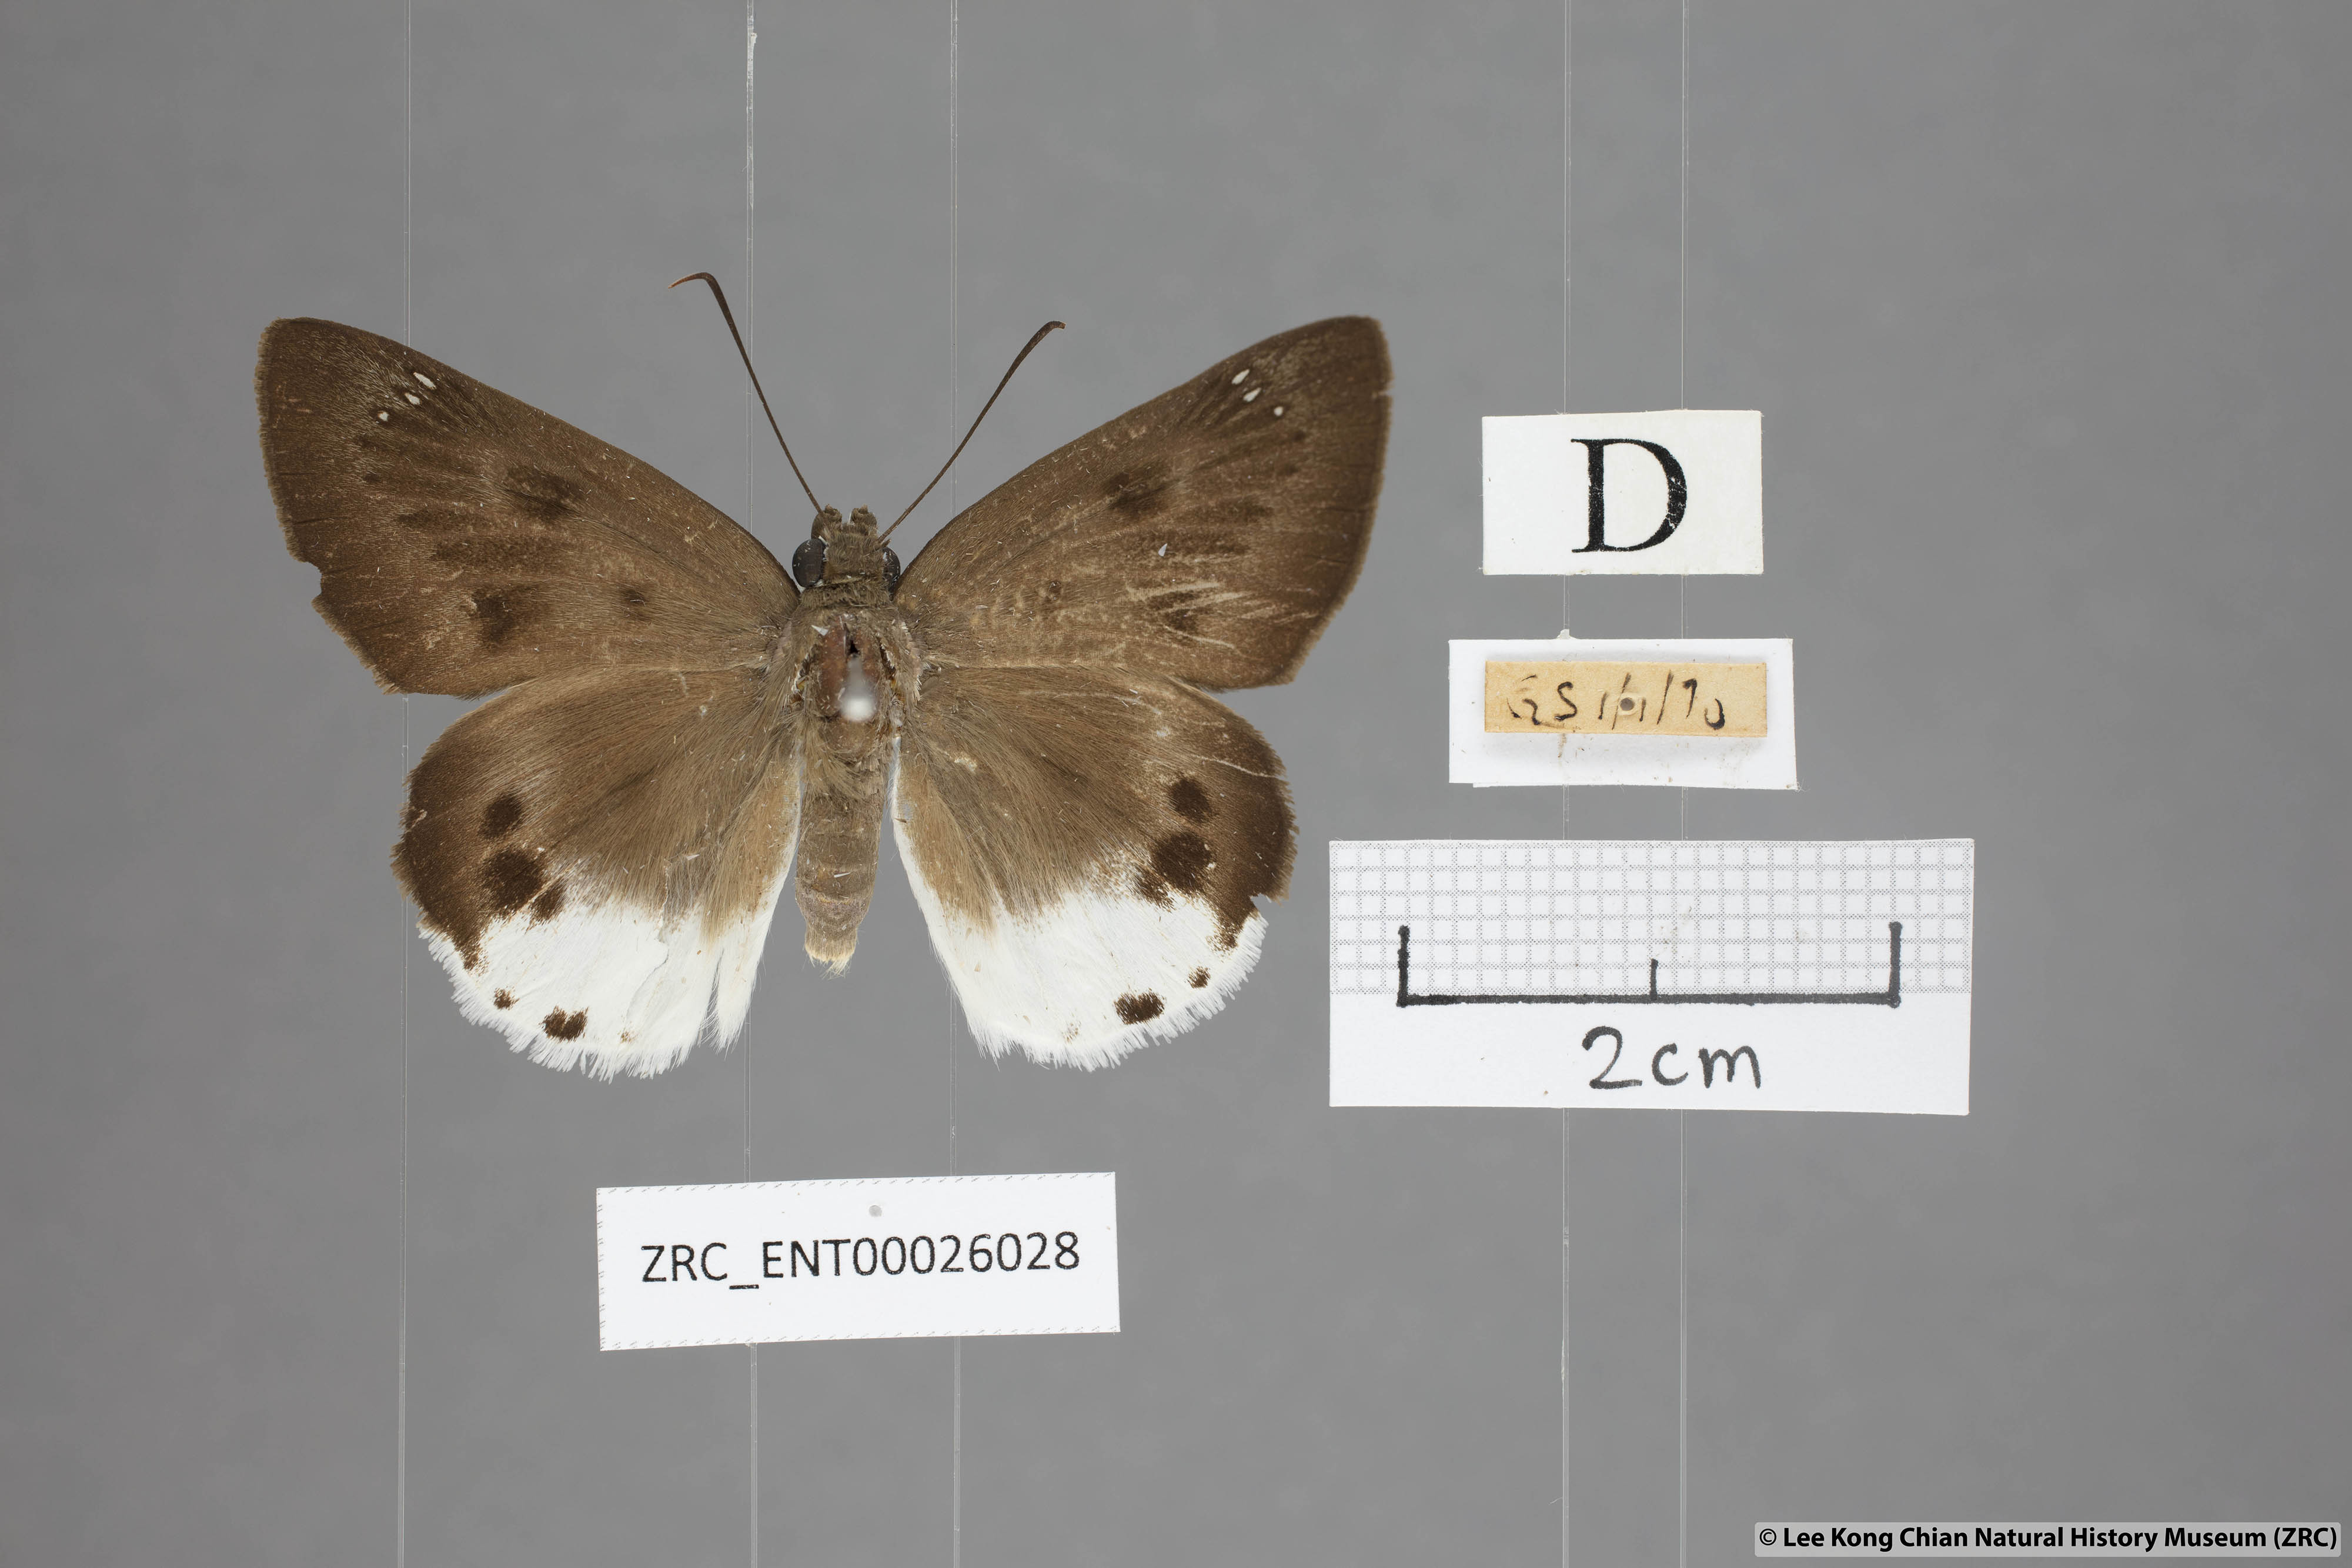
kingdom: Animalia
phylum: Arthropoda
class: Insecta
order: Lepidoptera
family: Hesperiidae
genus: Tagiades
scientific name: Tagiades parra
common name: Straight snow flat
